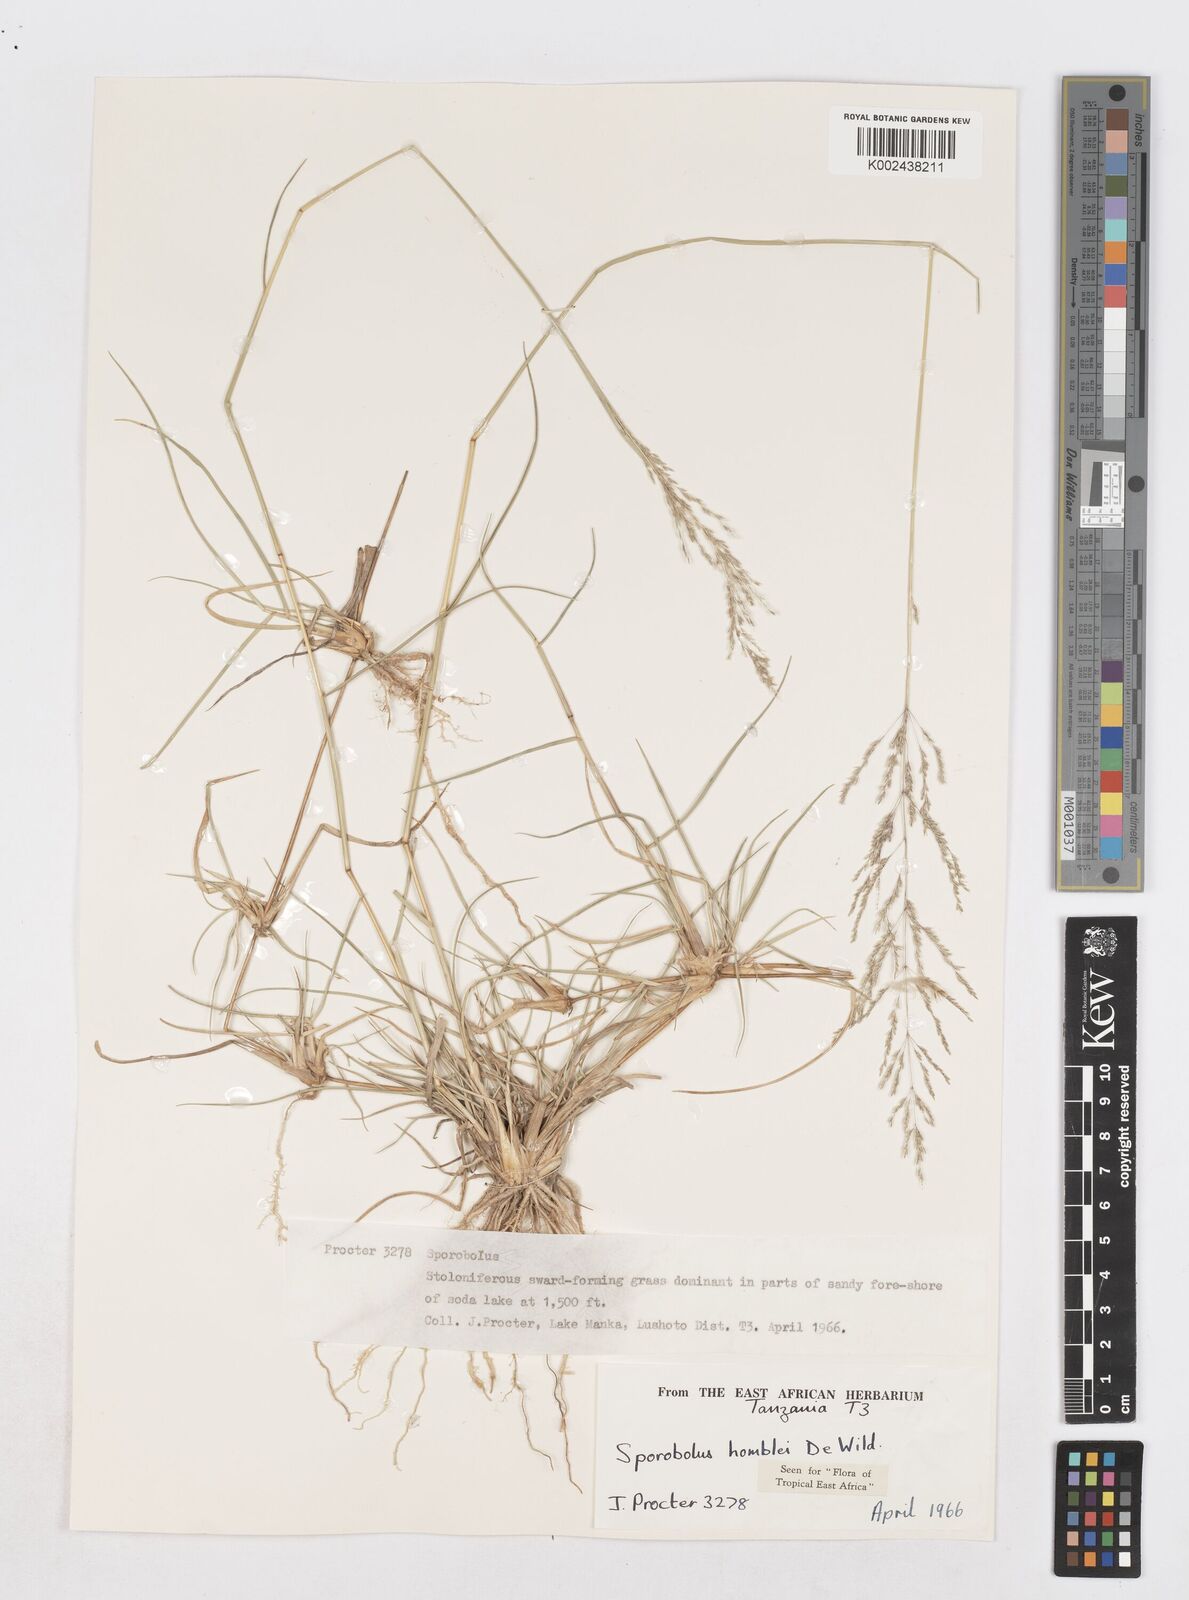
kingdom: Plantae
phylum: Tracheophyta
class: Liliopsida
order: Poales
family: Poaceae
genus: Sporobolus
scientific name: Sporobolus ioclados
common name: Pan dropseed
